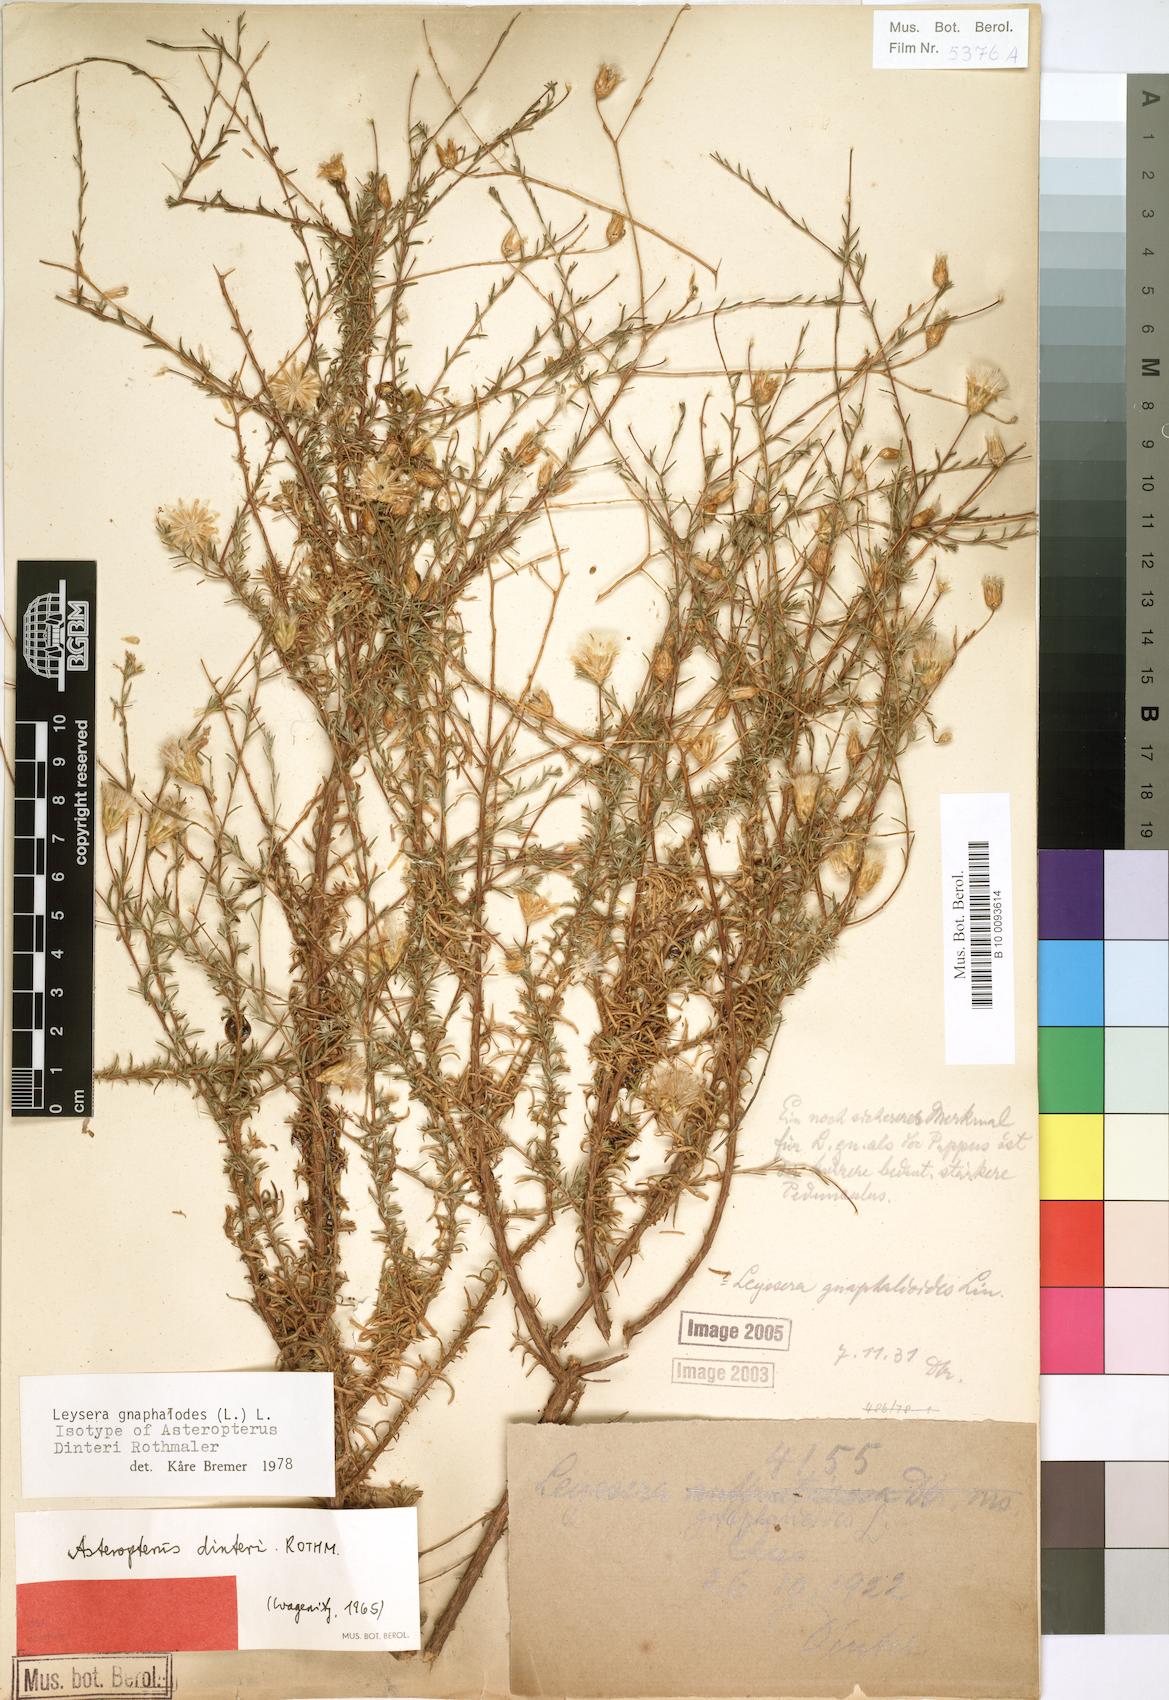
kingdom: Plantae
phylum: Tracheophyta
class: Magnoliopsida
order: Asterales
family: Asteraceae
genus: Leysera
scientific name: Leysera
